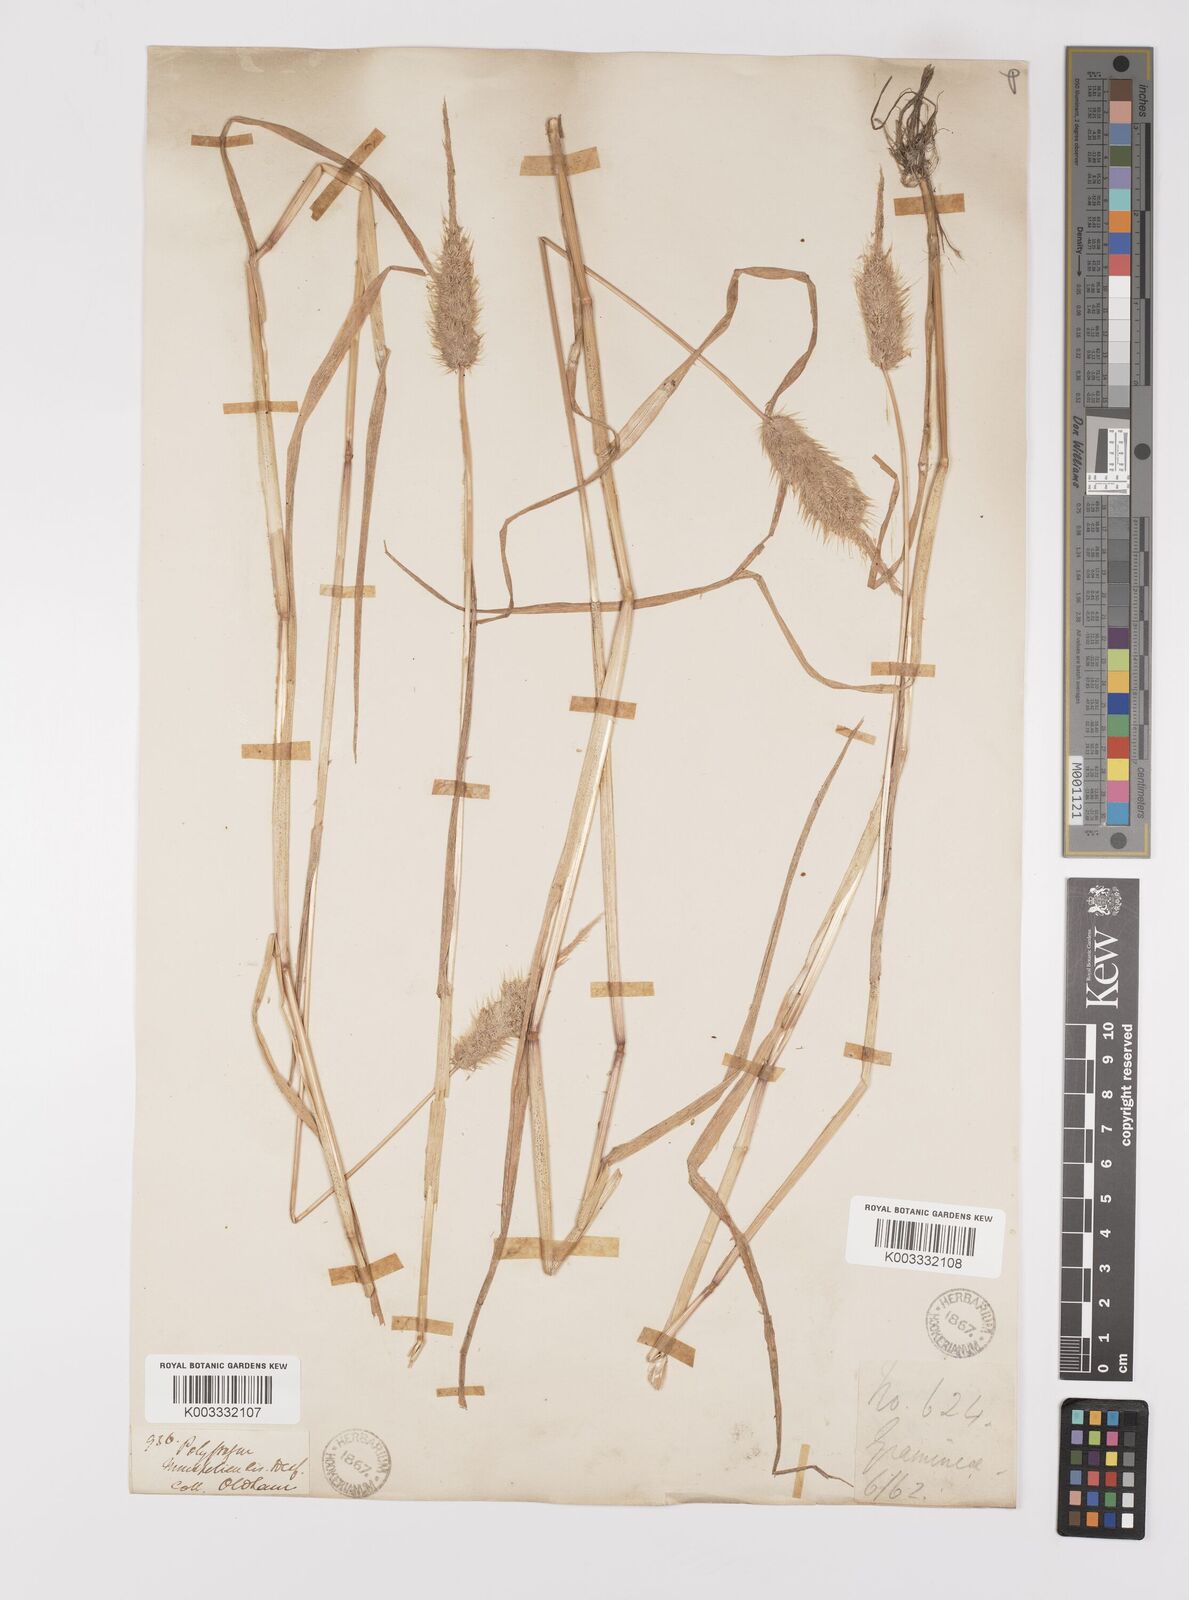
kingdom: Plantae
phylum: Tracheophyta
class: Liliopsida
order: Poales
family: Poaceae
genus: Polypogon
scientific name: Polypogon monspeliensis
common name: Annual rabbitsfoot grass
